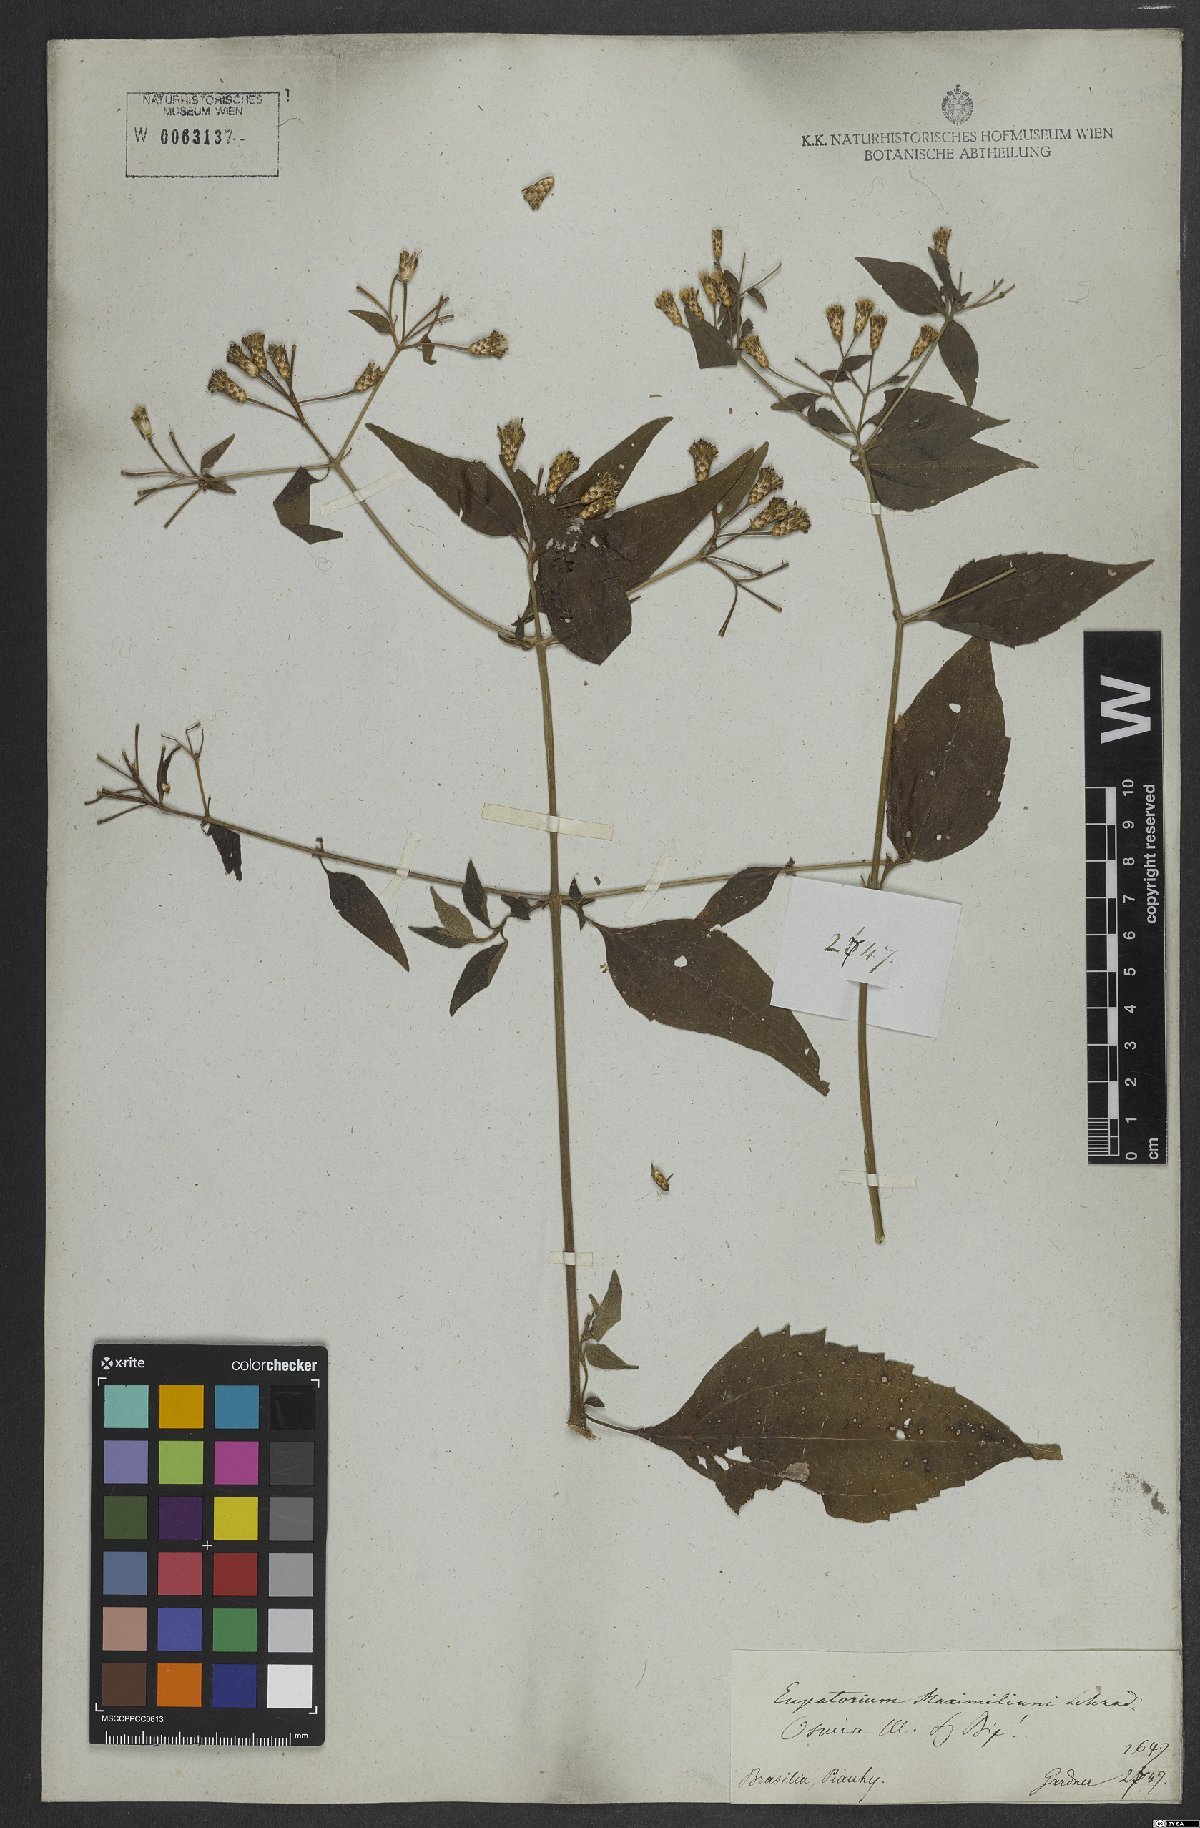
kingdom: Plantae
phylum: Tracheophyta
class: Magnoliopsida
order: Asterales
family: Asteraceae
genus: Chromolaena
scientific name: Chromolaena odorata
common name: Siamweed
